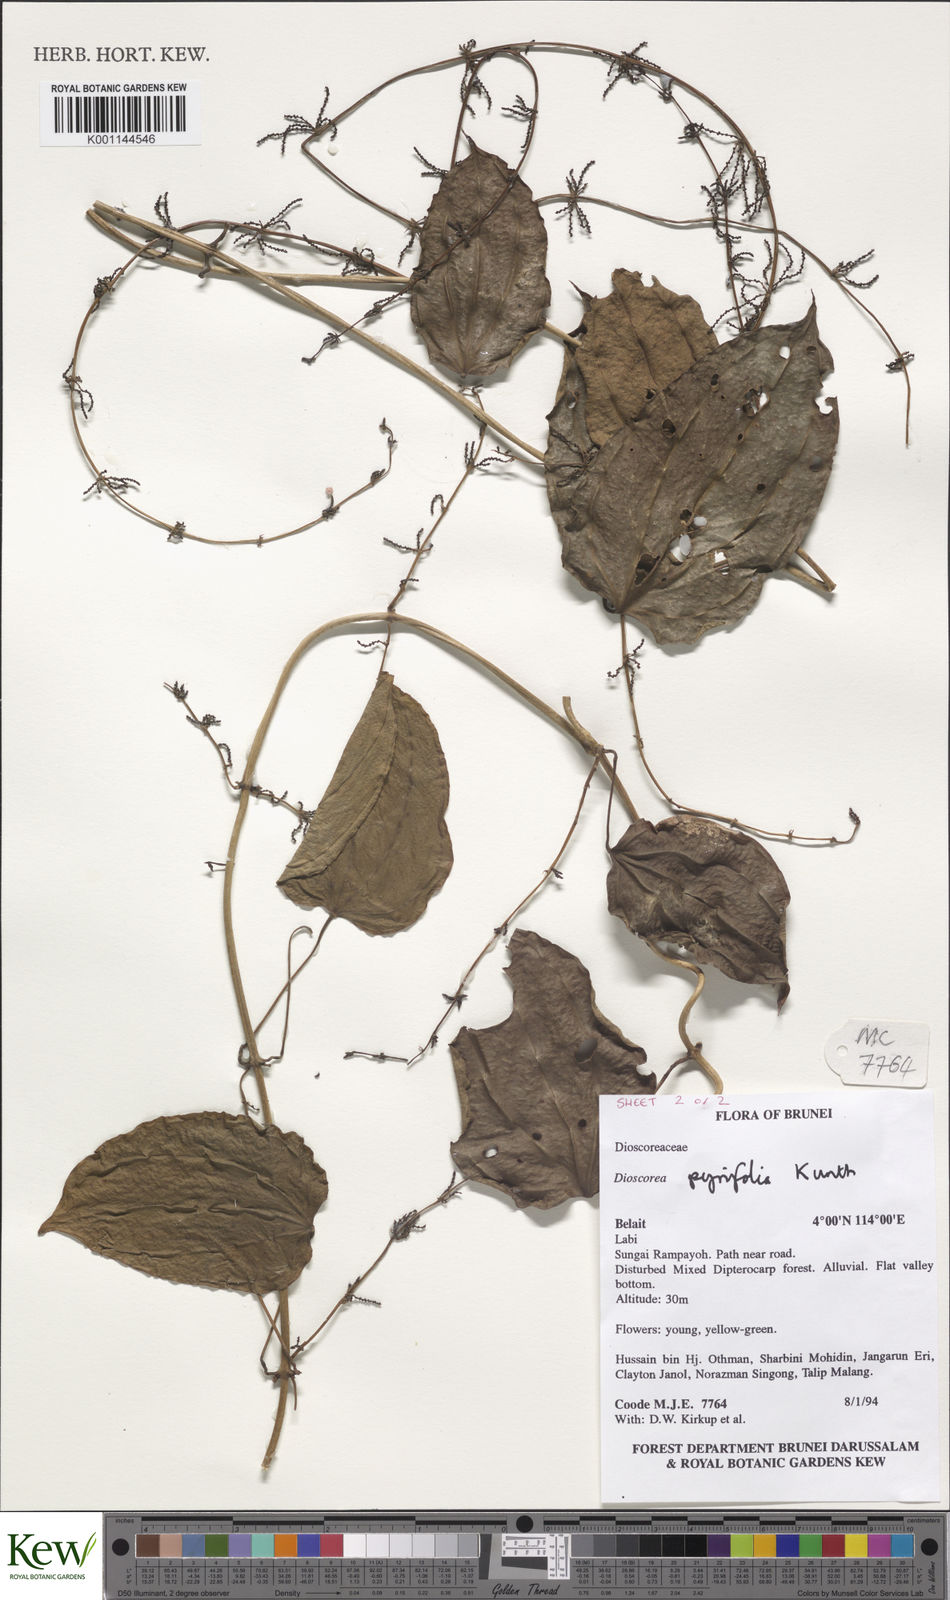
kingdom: Plantae
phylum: Tracheophyta
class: Liliopsida
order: Dioscoreales
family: Dioscoreaceae
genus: Dioscorea
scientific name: Dioscorea pyrifolia
